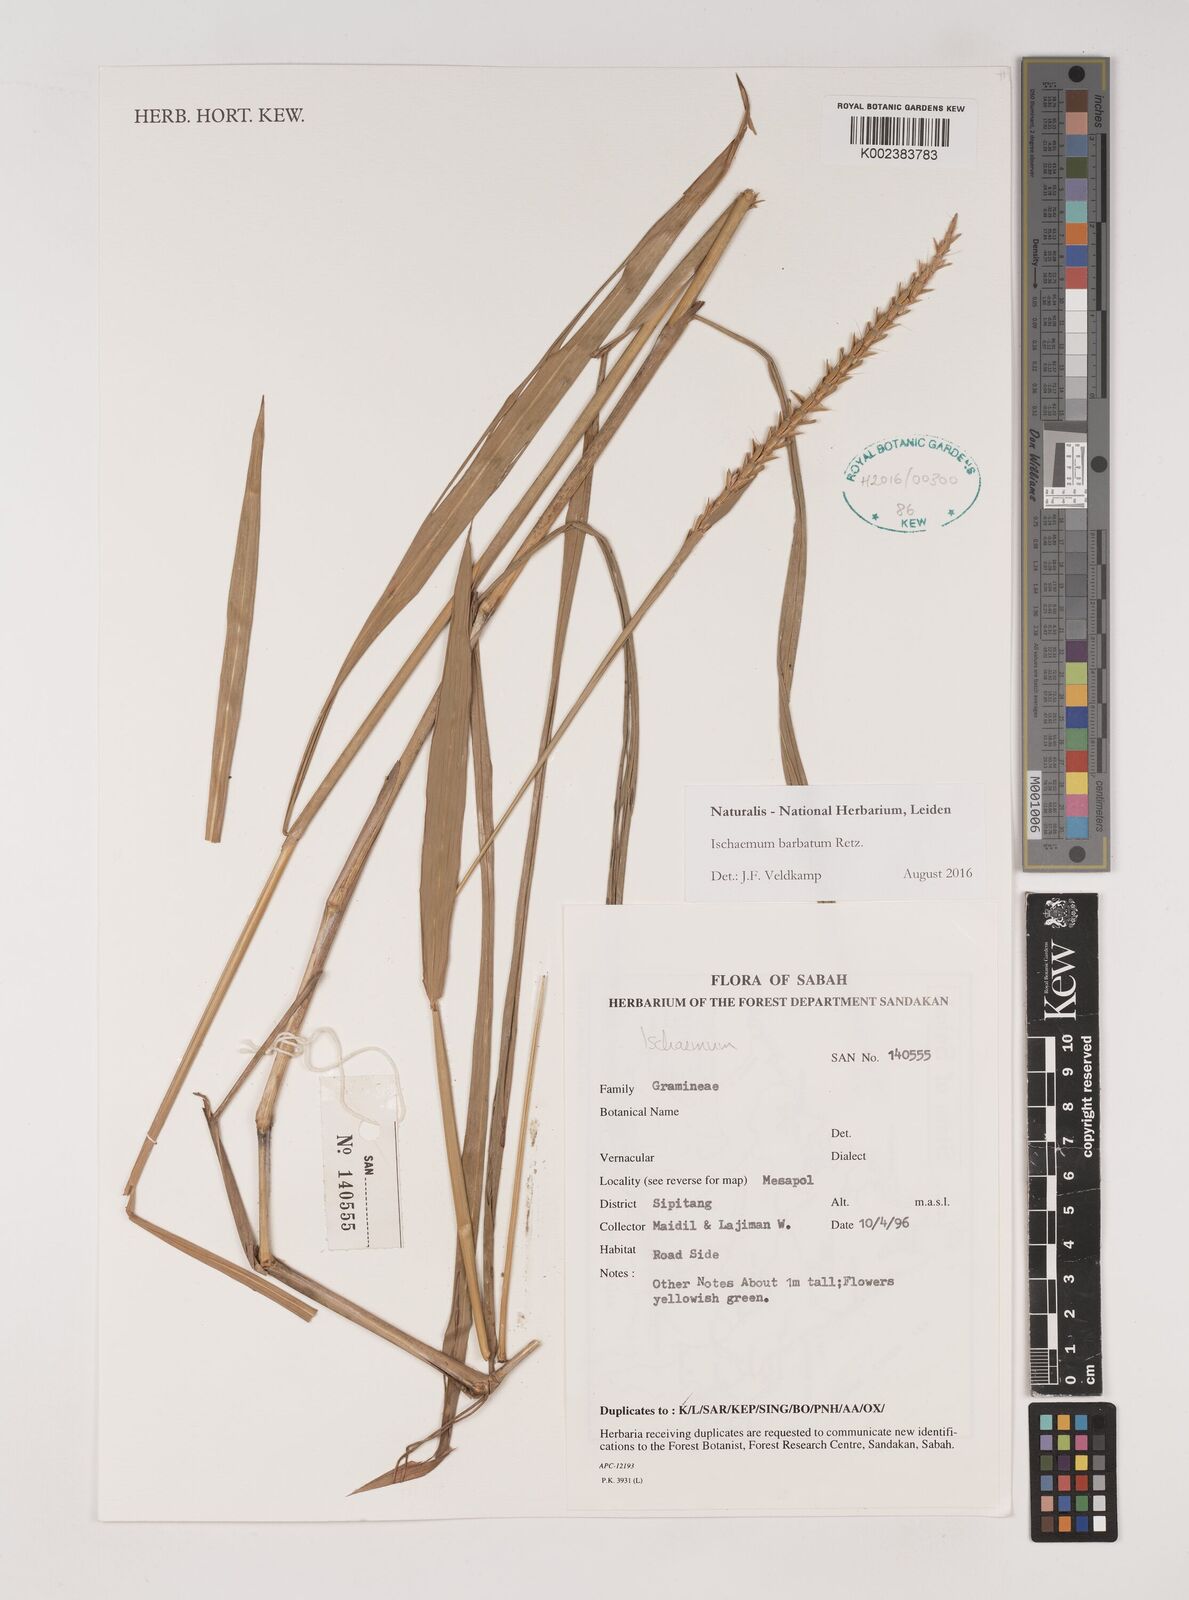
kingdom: Plantae
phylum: Tracheophyta
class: Liliopsida
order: Poales
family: Poaceae
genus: Ischaemum
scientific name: Ischaemum barbatum
